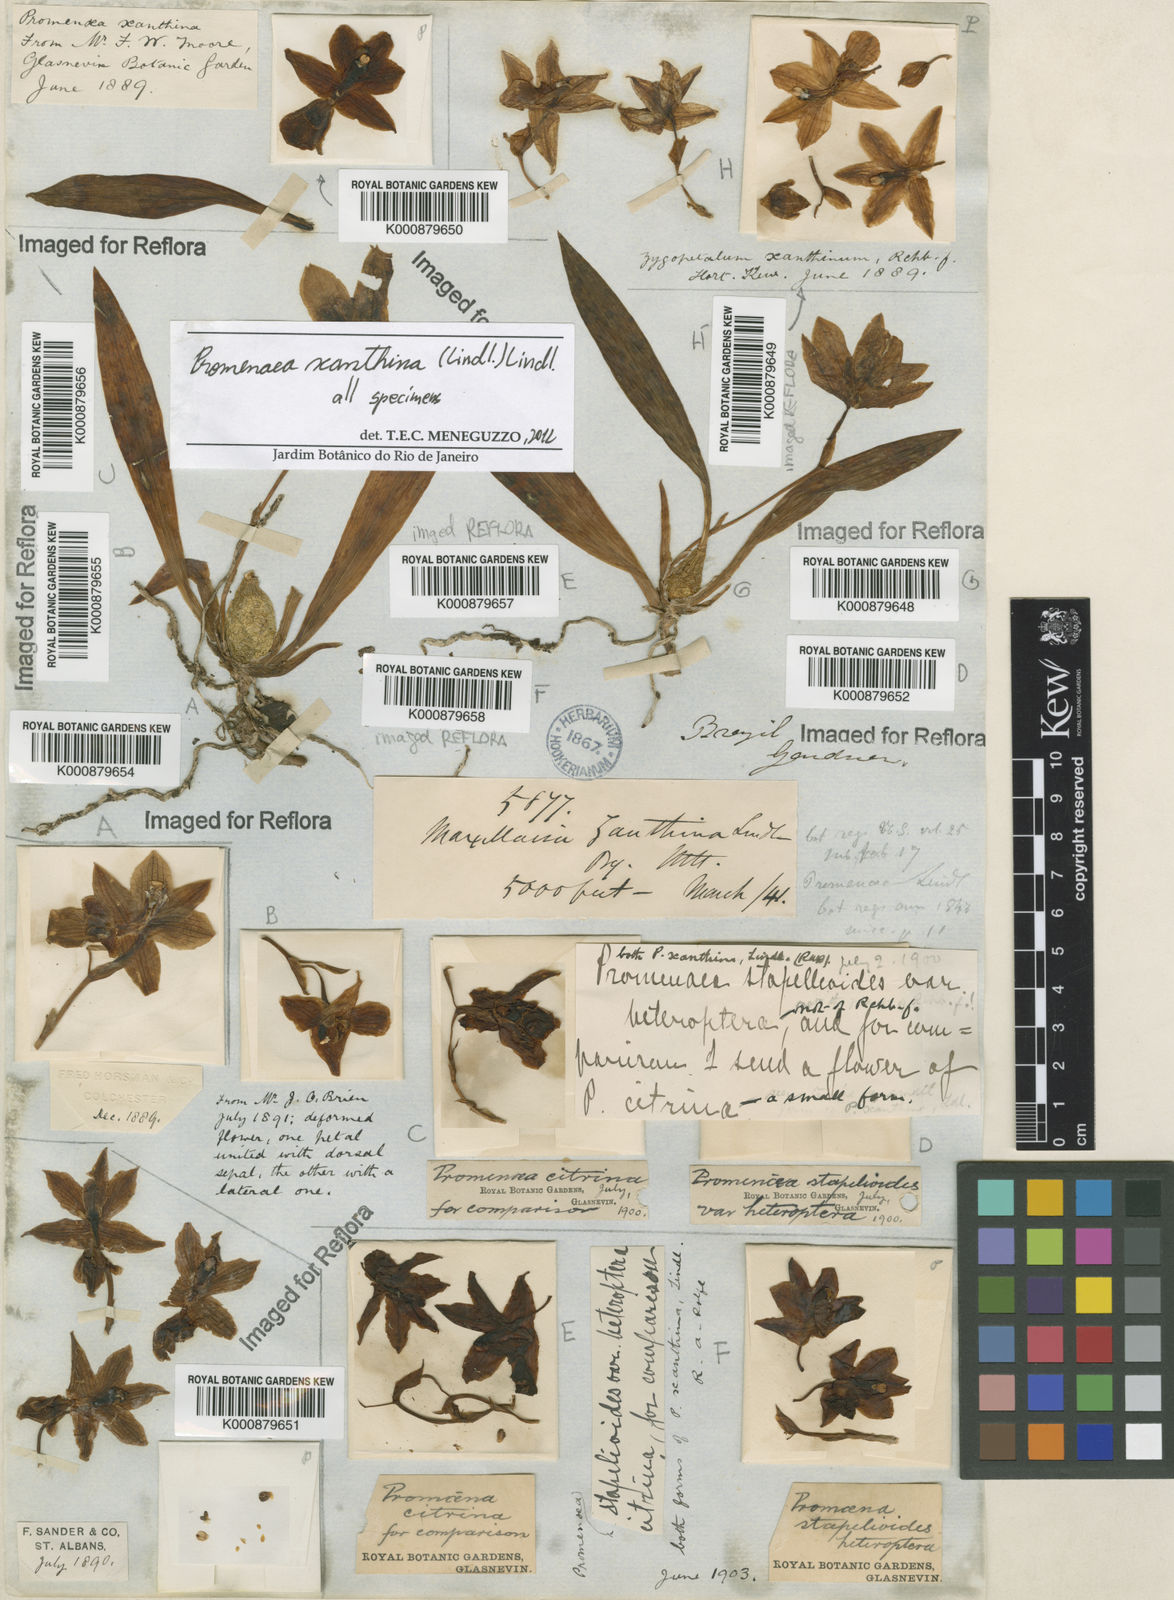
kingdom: Plantae
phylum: Tracheophyta
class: Liliopsida
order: Asparagales
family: Orchidaceae
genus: Promenaea
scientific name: Promenaea xanthina
